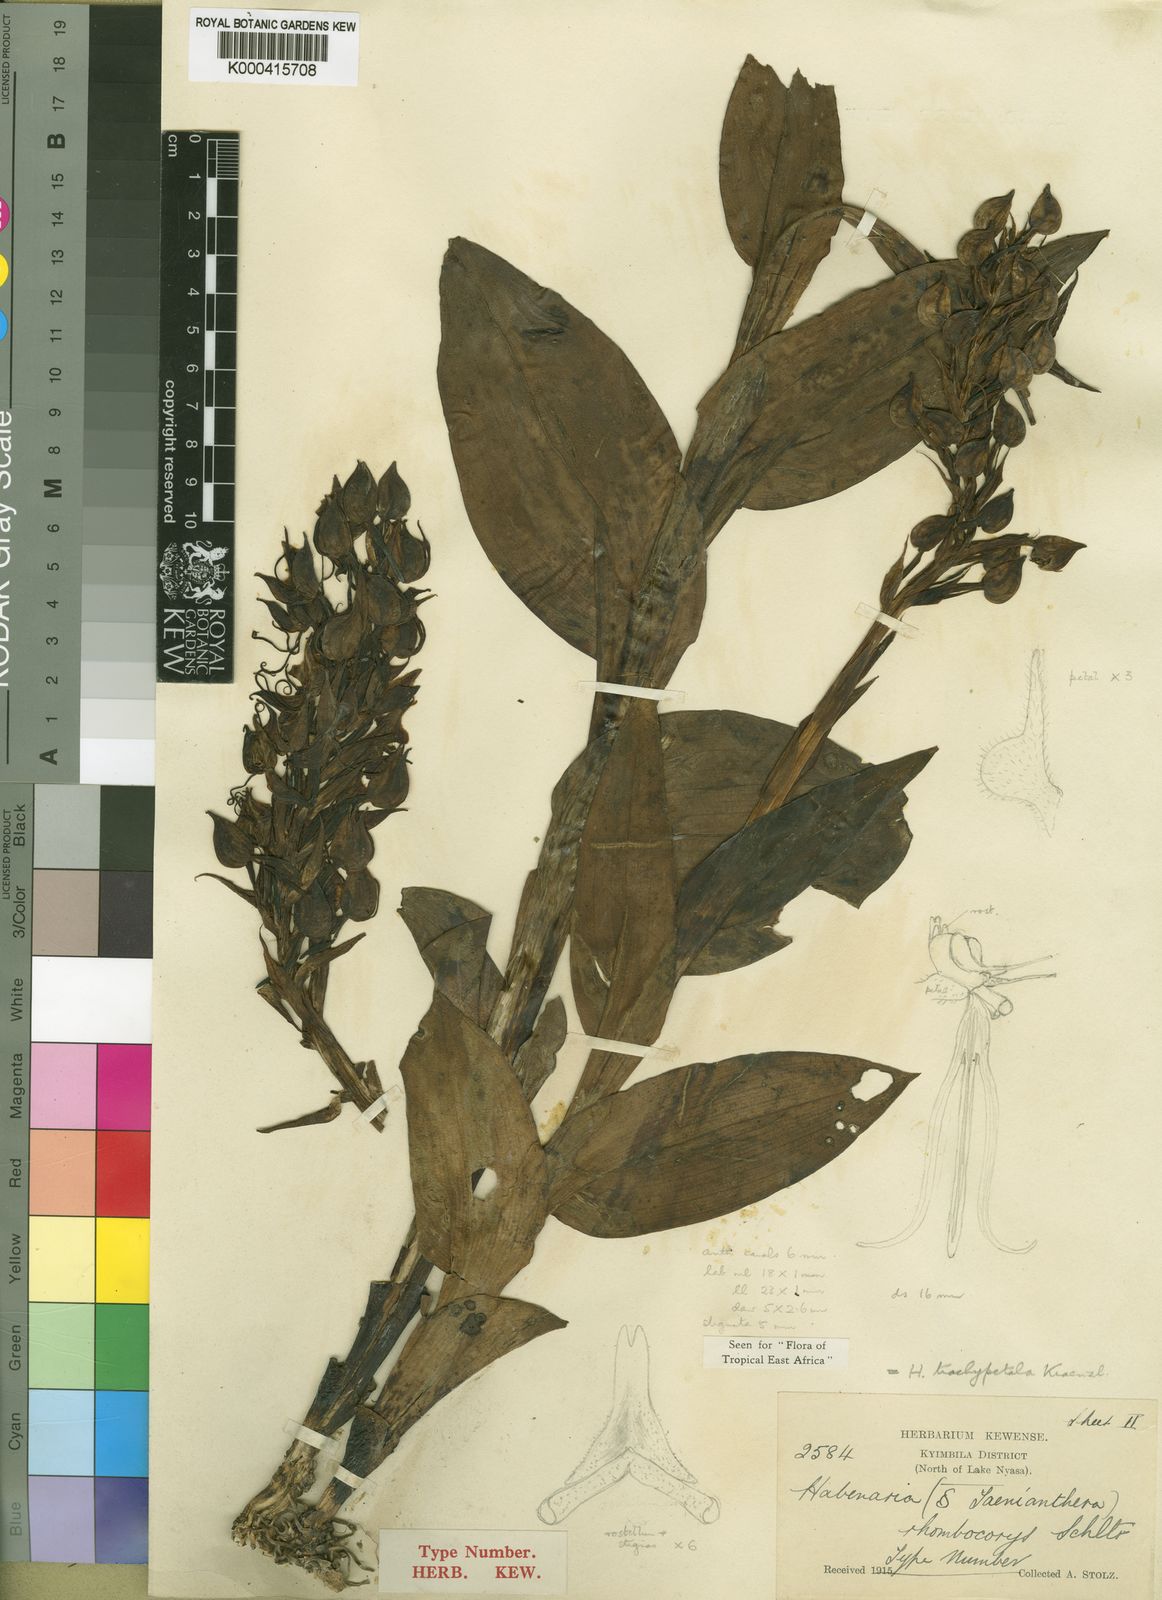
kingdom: Plantae
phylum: Tracheophyta
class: Liliopsida
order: Asparagales
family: Orchidaceae
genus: Habenaria
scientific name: Habenaria trachypetala
